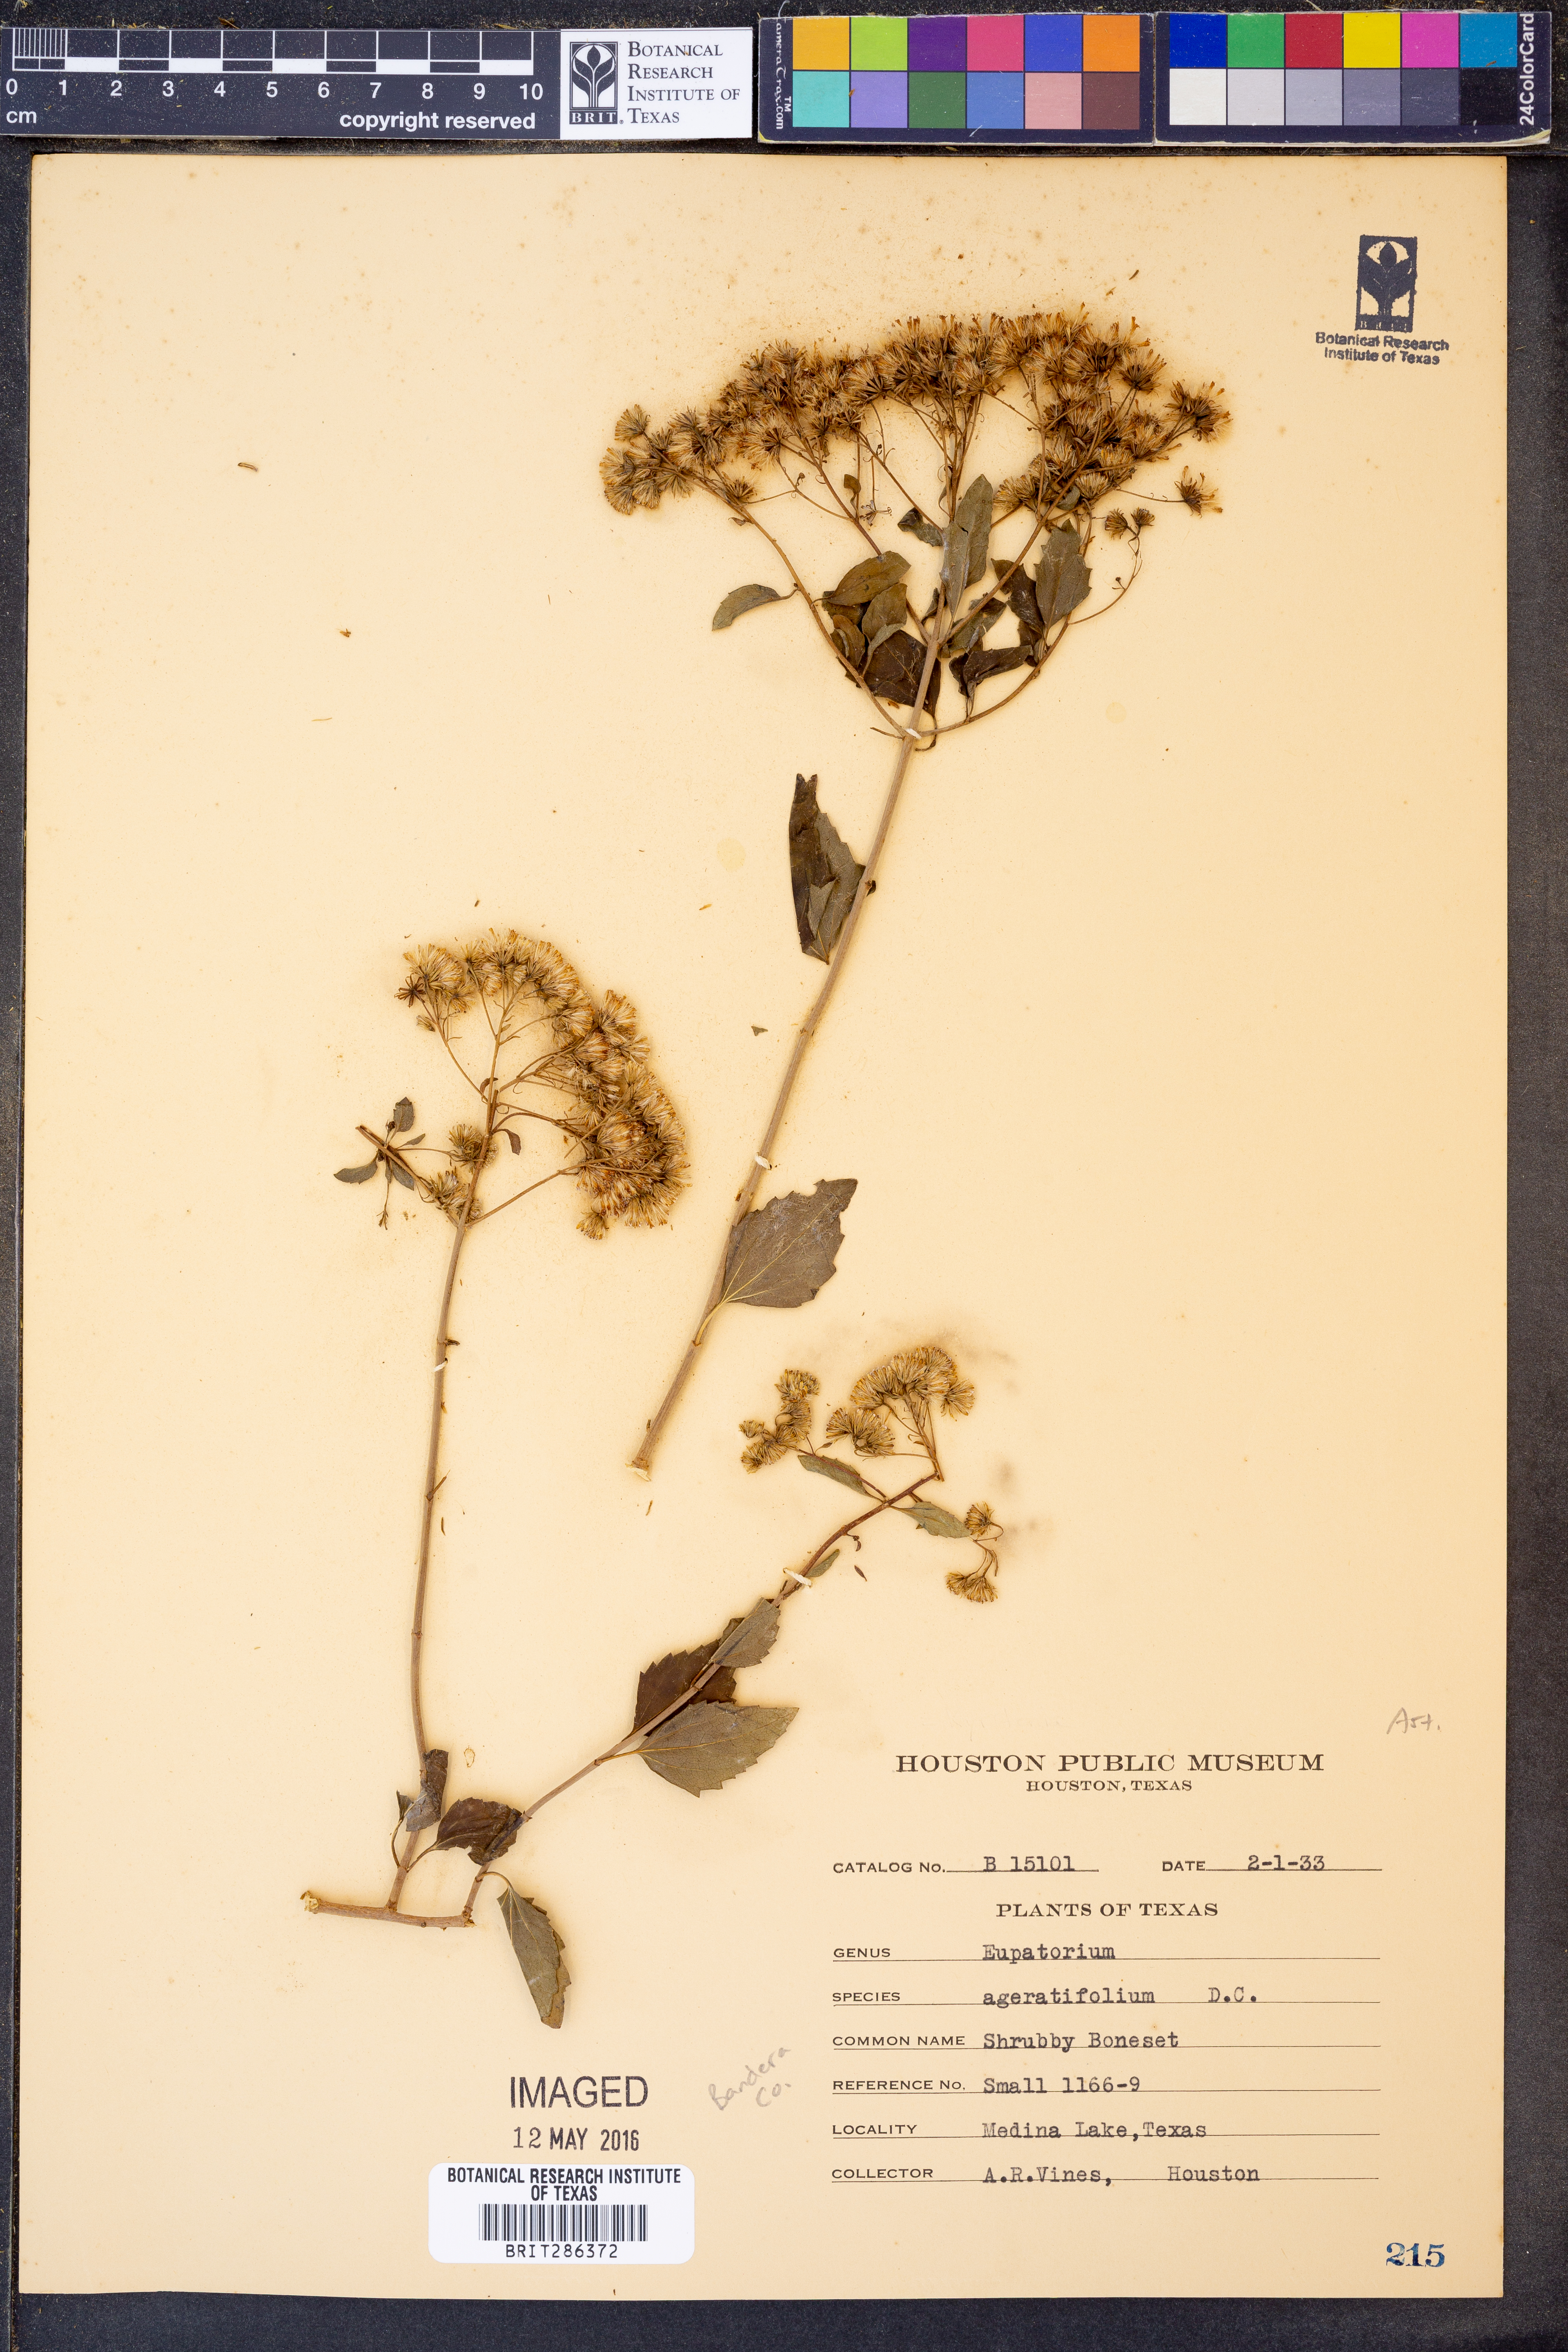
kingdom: Plantae
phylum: Tracheophyta
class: Magnoliopsida
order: Asterales
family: Asteraceae
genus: Ageratina
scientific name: Ageratina havanensis
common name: Havana snakeroot
